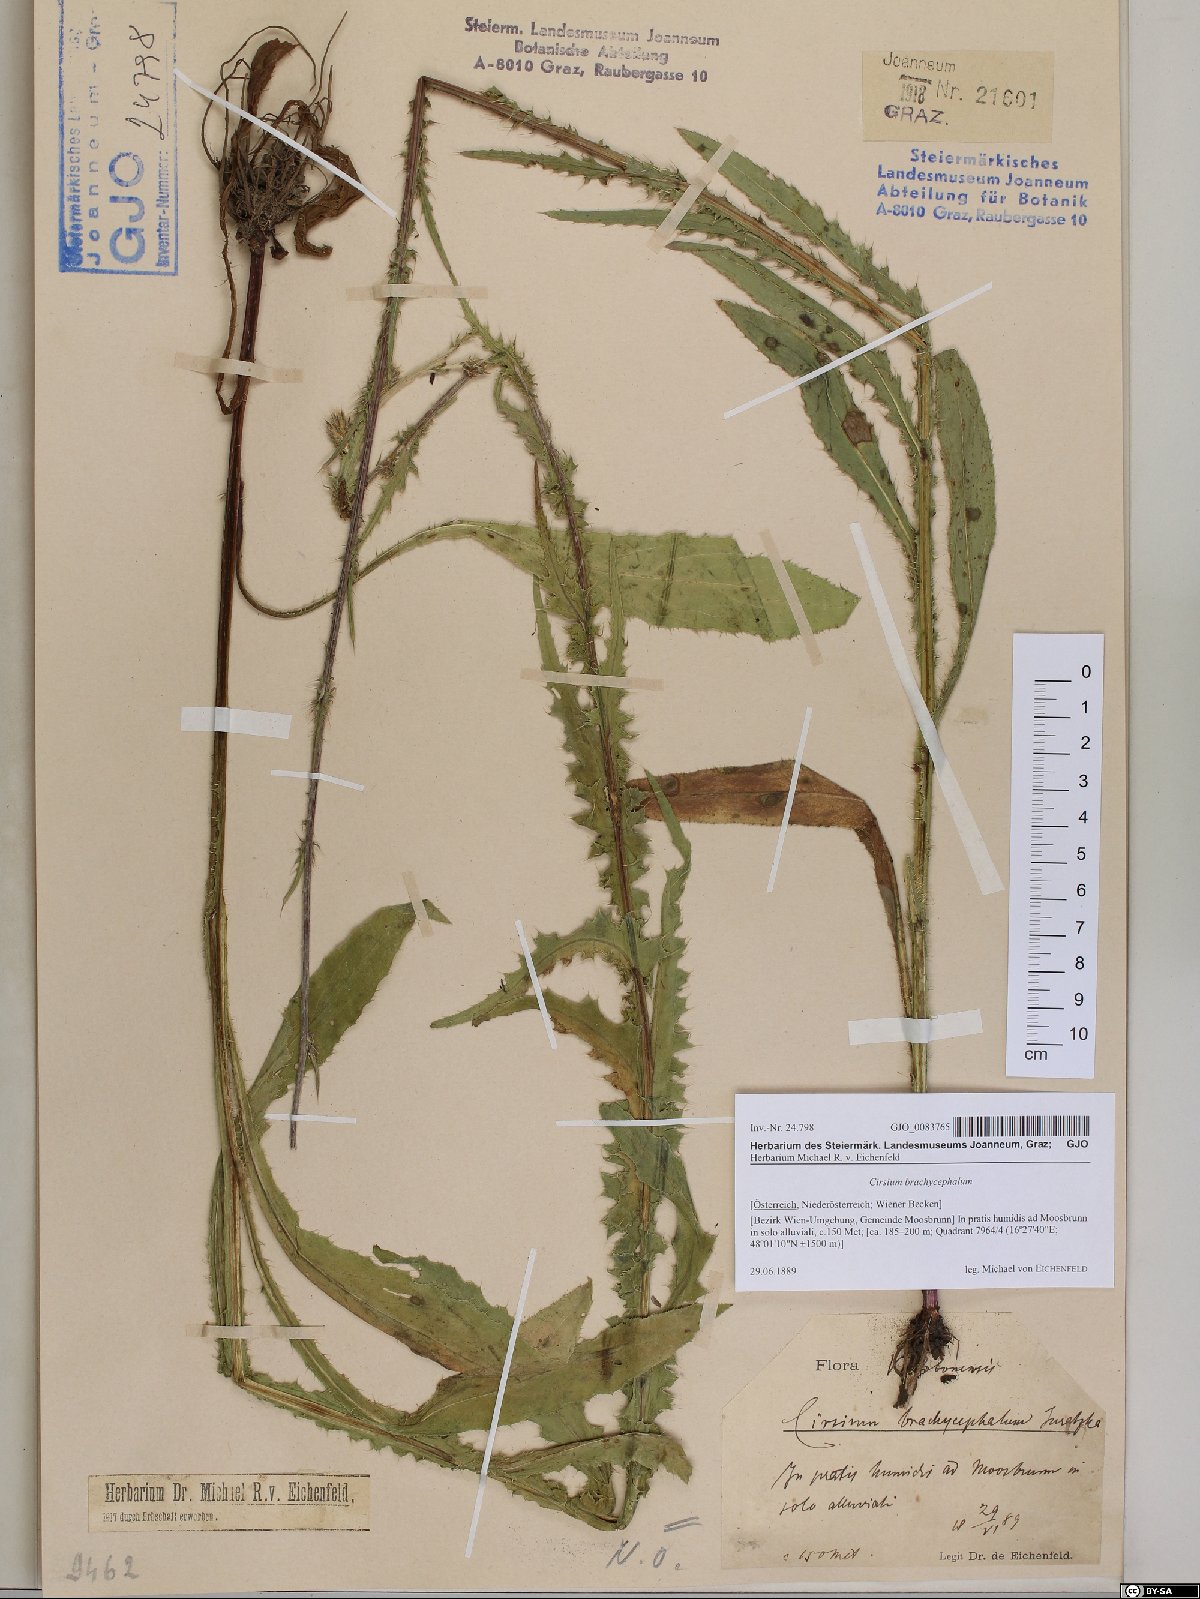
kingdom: Plantae
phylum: Tracheophyta
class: Magnoliopsida
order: Asterales
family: Asteraceae
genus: Cirsium
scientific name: Cirsium brachycephalum
